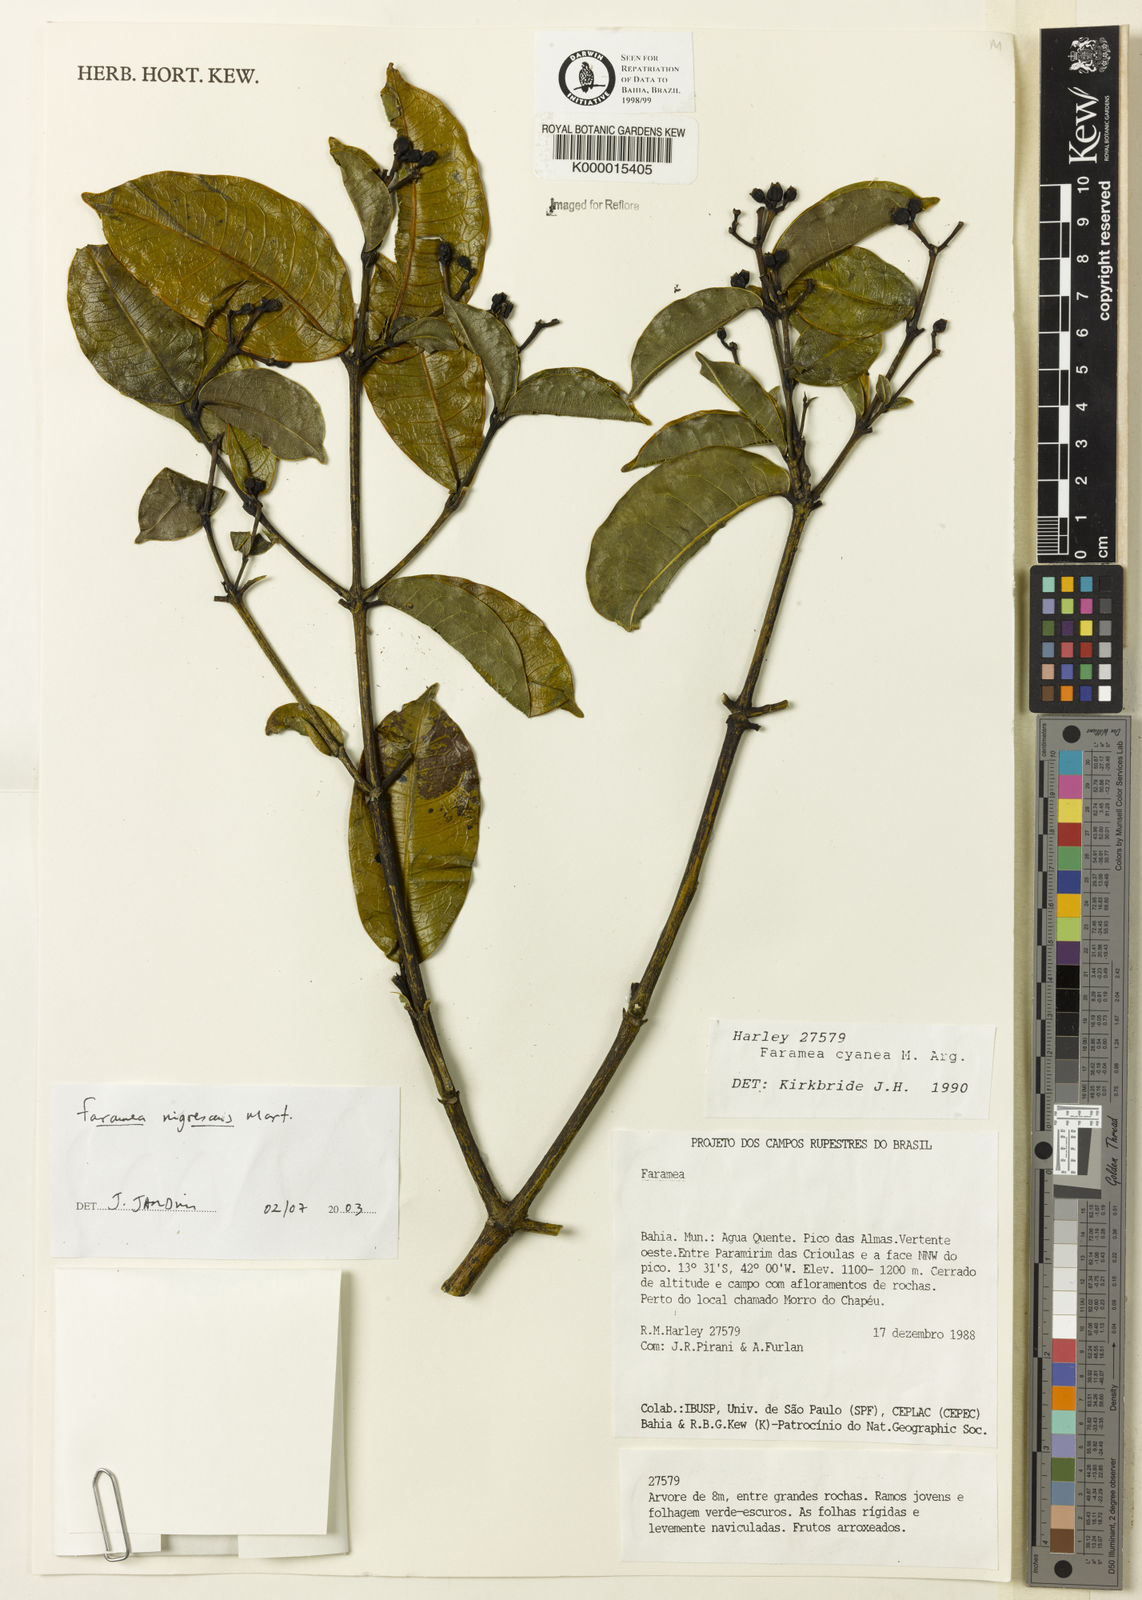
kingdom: Plantae
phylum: Tracheophyta
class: Magnoliopsida
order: Gentianales
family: Rubiaceae
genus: Faramea
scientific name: Faramea nigrescens
